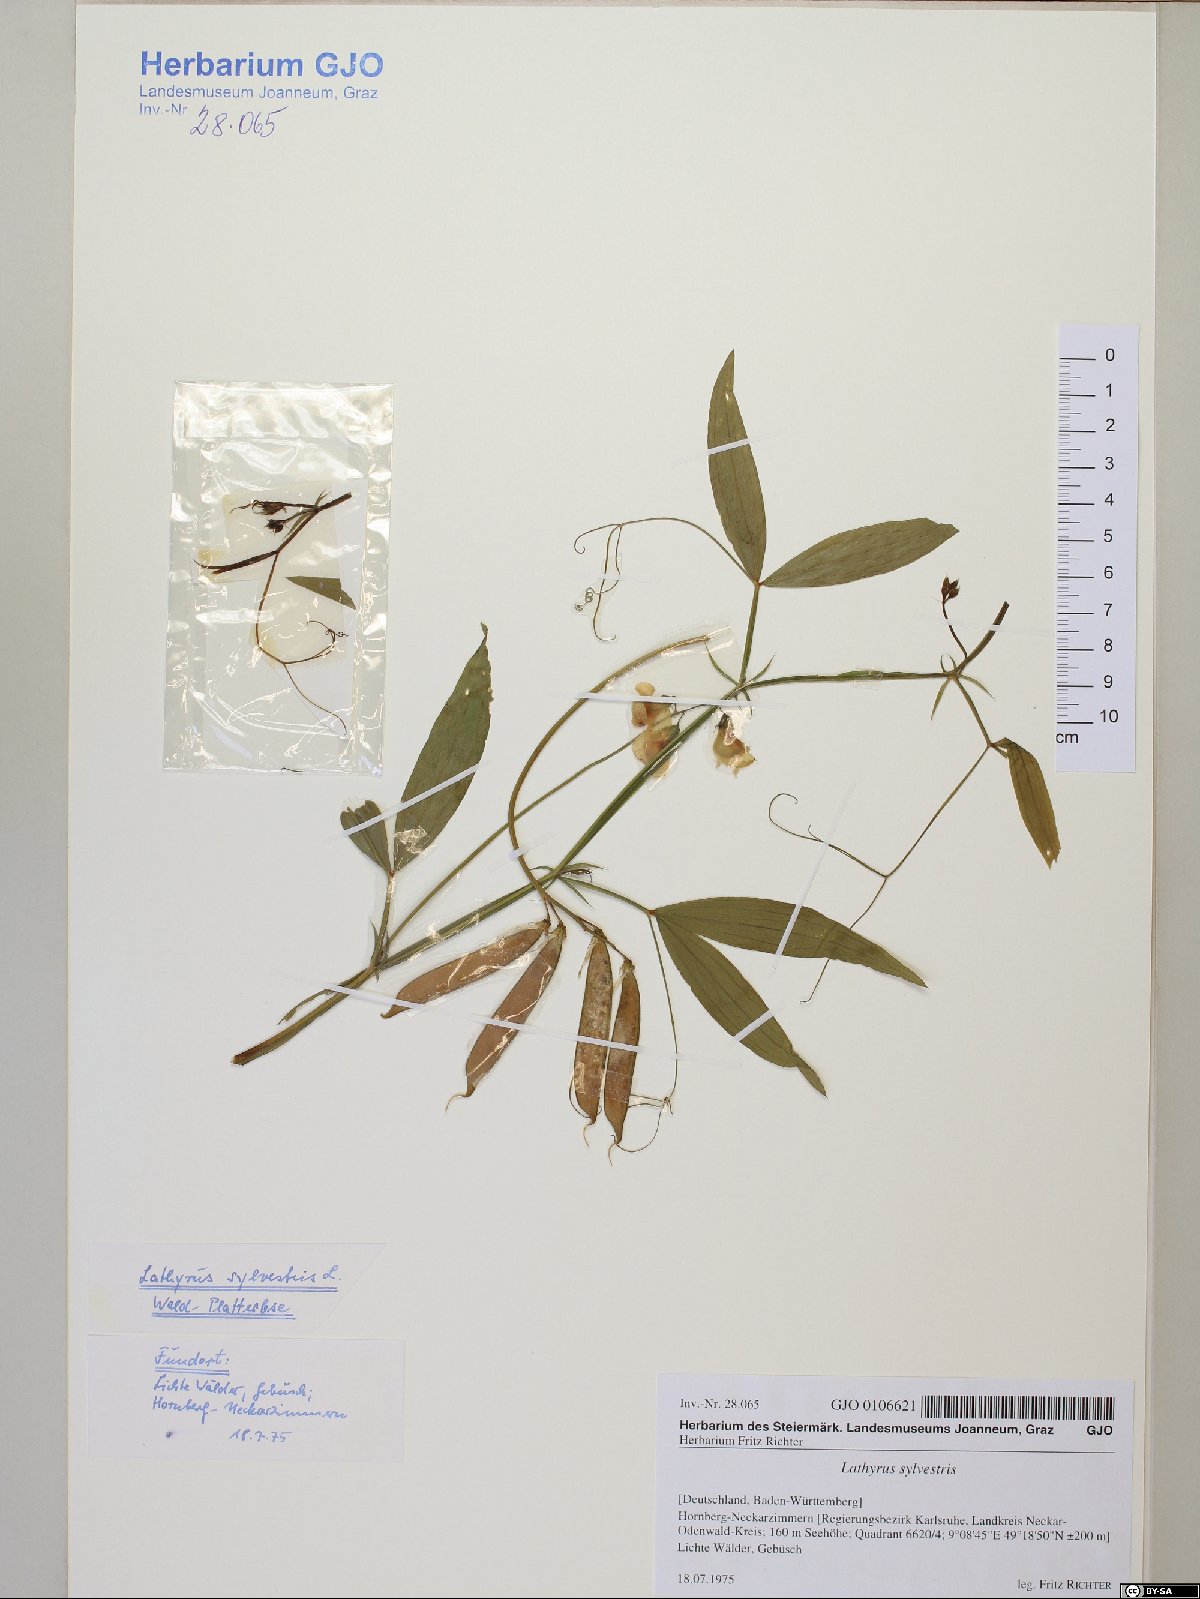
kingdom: Plantae
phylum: Tracheophyta
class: Magnoliopsida
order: Fabales
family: Fabaceae
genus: Lathyrus
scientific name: Lathyrus sylvestris
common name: Flat pea
